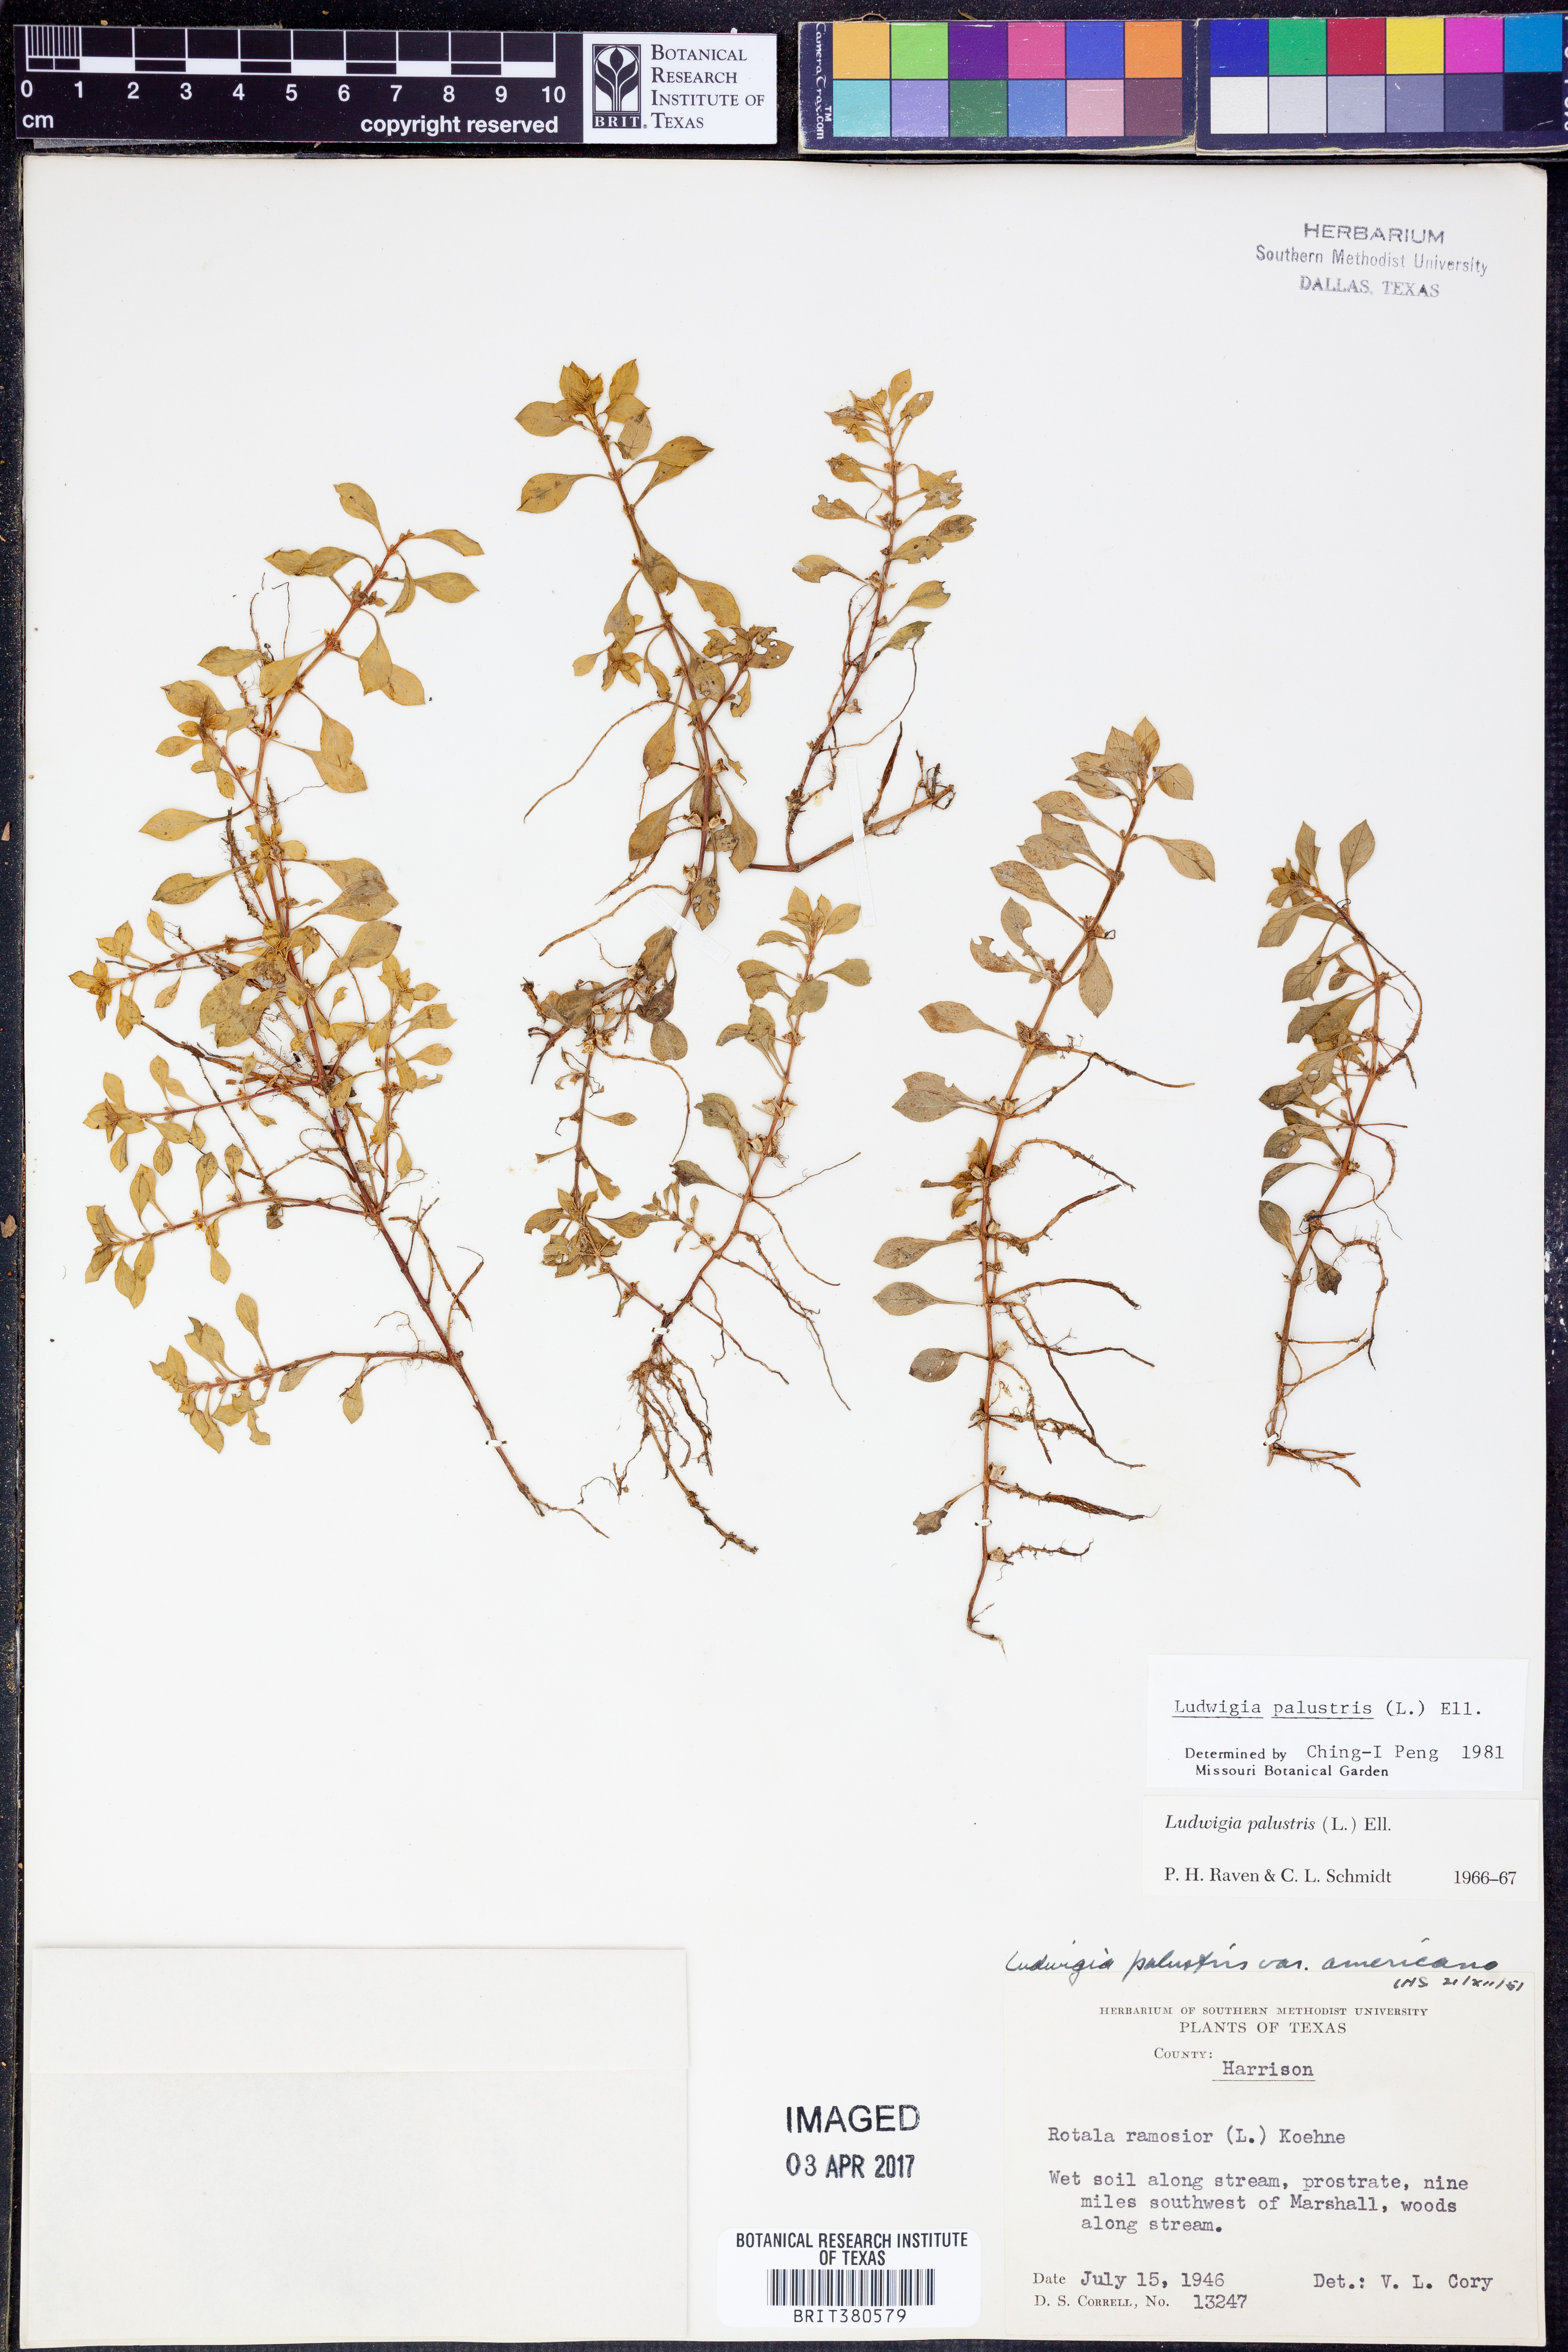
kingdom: Plantae
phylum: Tracheophyta
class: Magnoliopsida
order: Myrtales
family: Onagraceae
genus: Ludwigia
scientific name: Ludwigia palustris
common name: Hampshire-purslane
